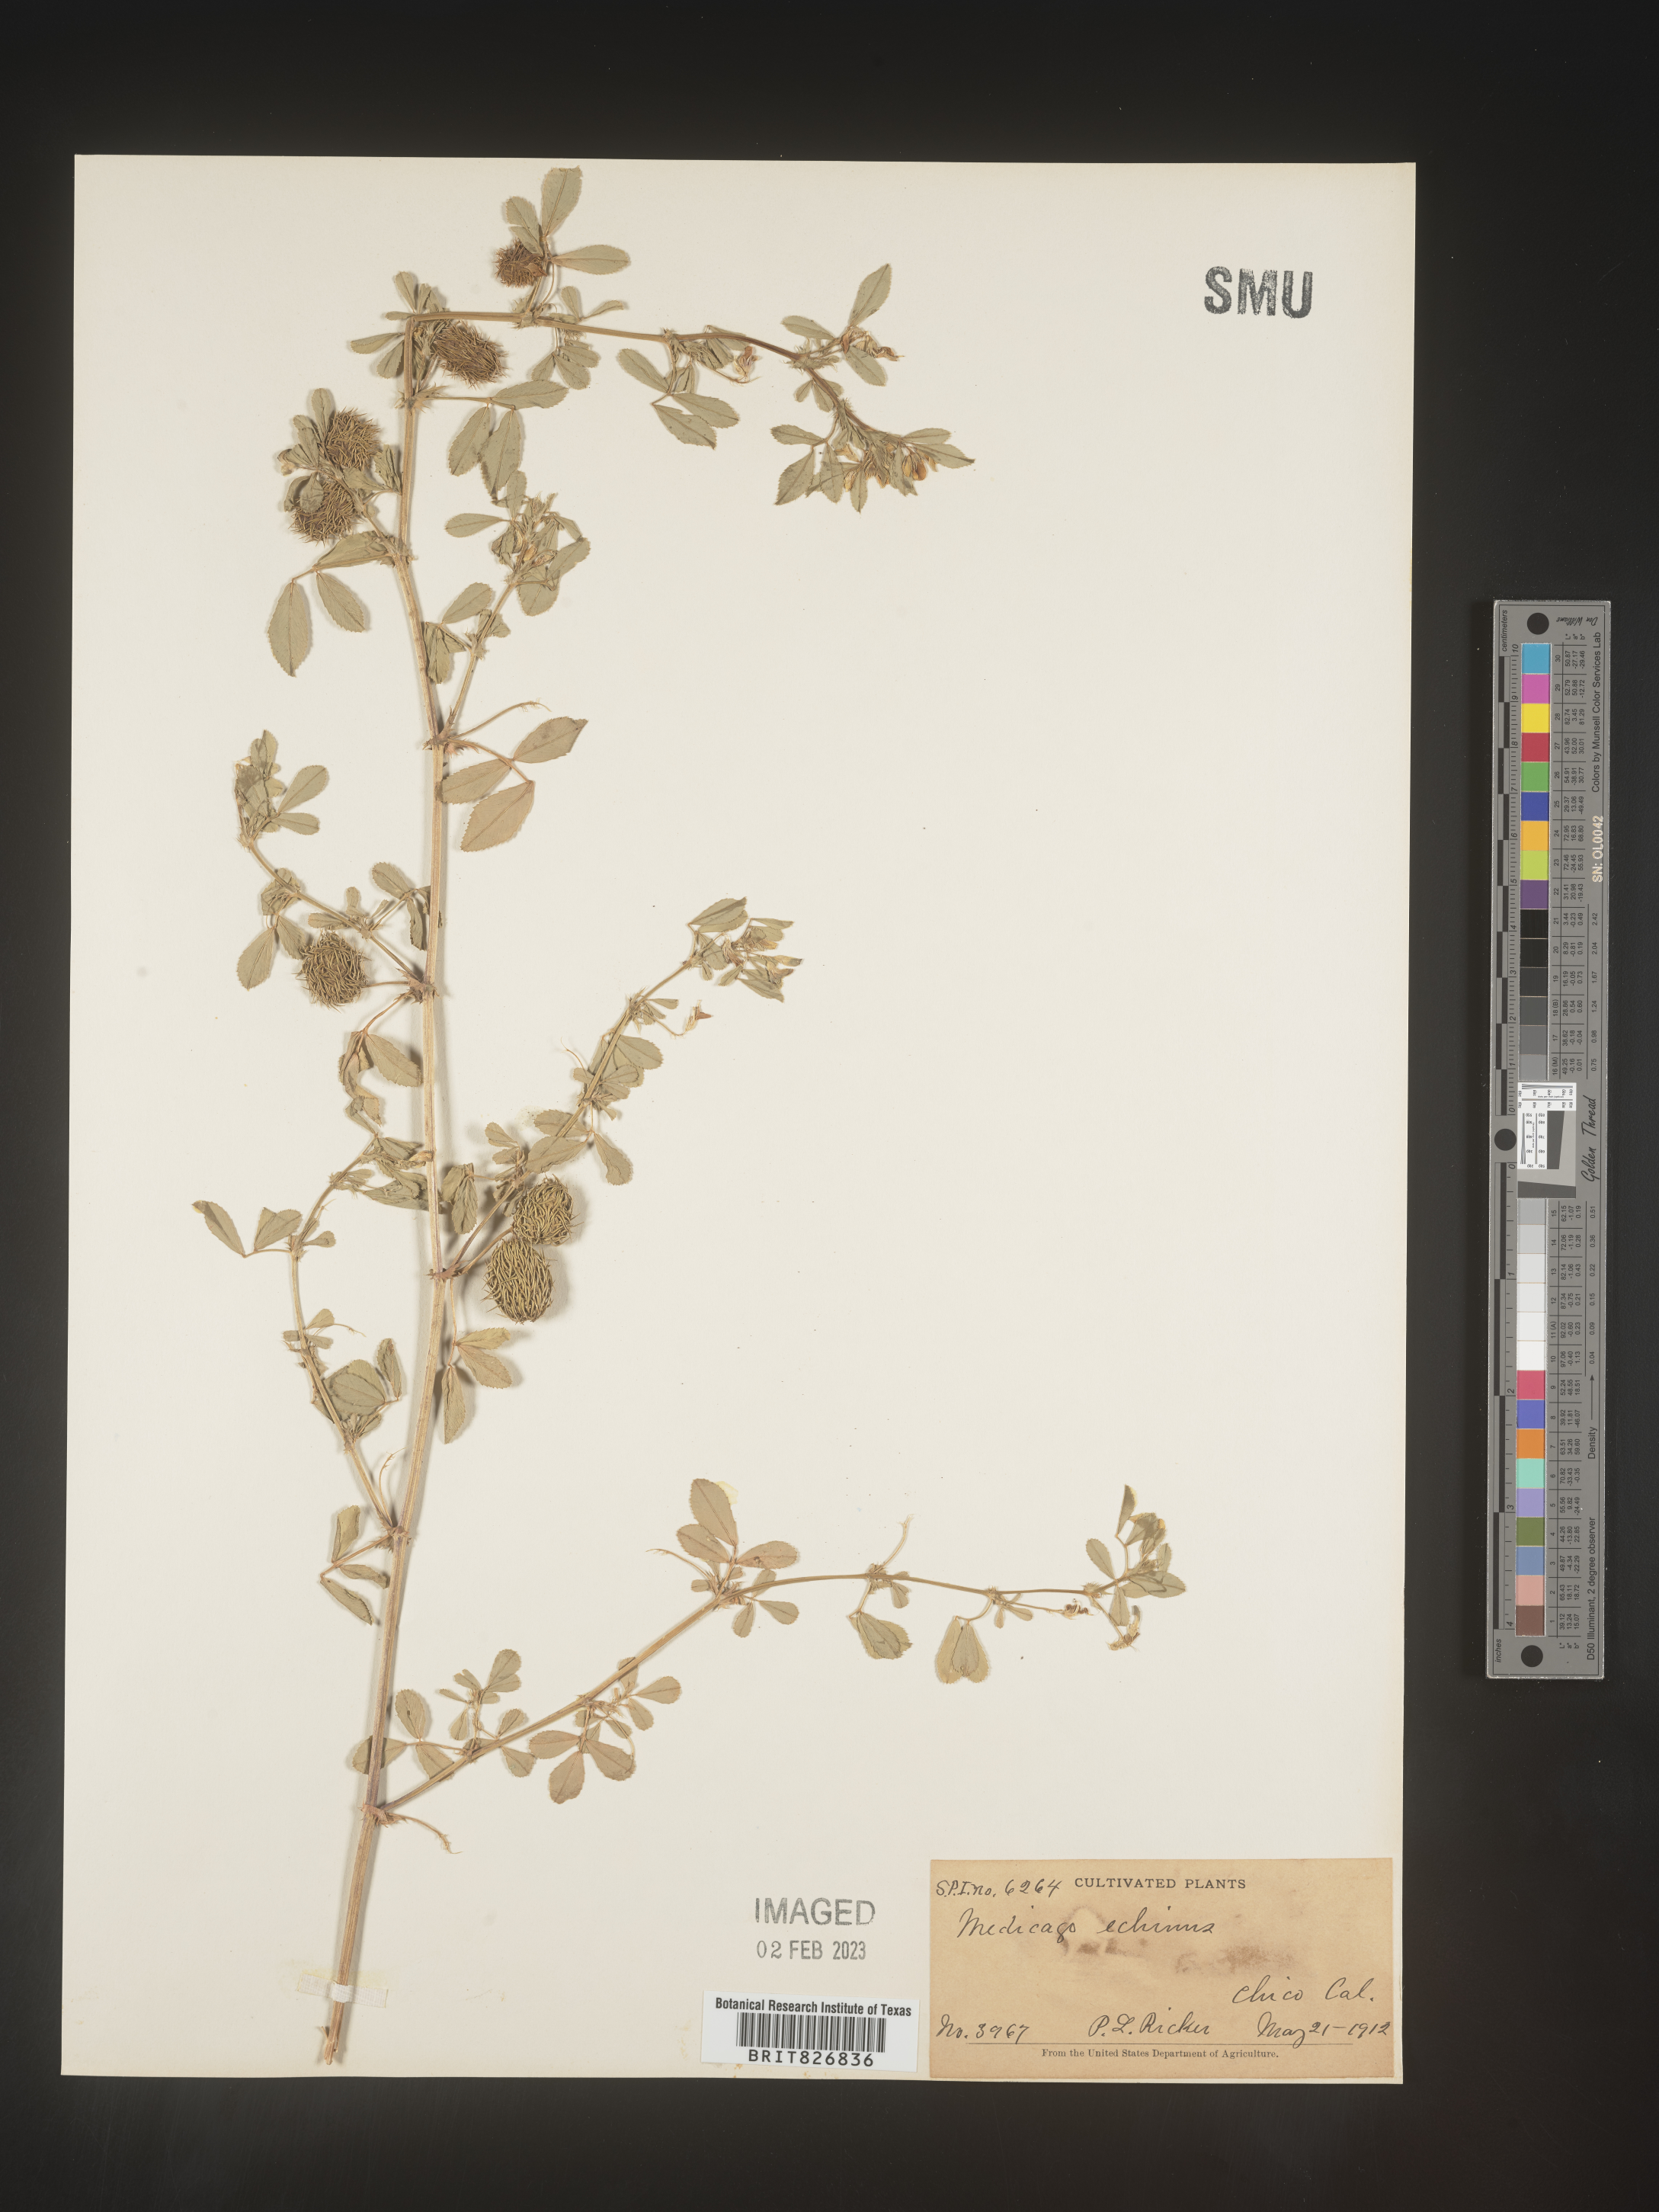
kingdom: Plantae
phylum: Tracheophyta
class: Magnoliopsida
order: Fabales
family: Fabaceae
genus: Medicago
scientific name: Medicago
